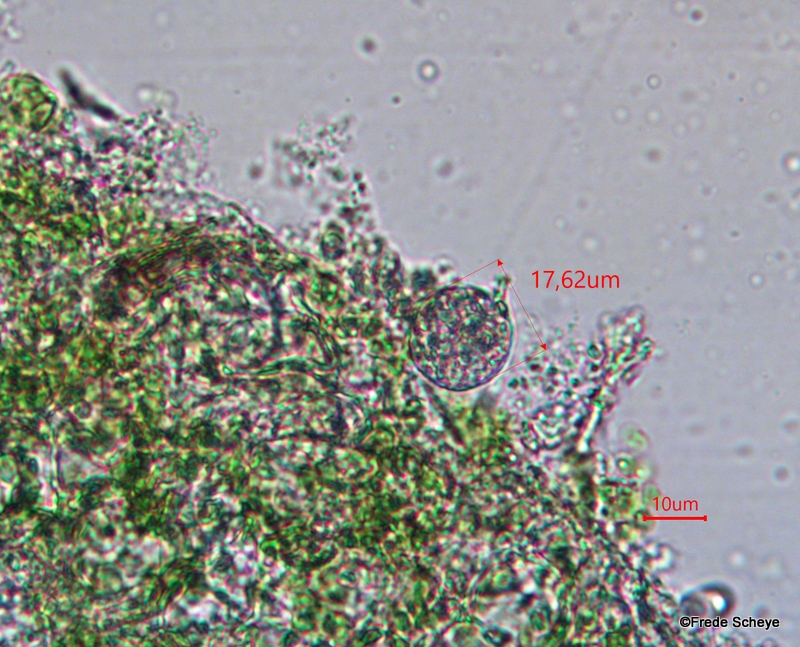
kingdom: Chromista
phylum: Oomycota
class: Peronosporea
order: Peronosporales
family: Peronosporaceae
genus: Peronospora
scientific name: Peronospora crustosa
